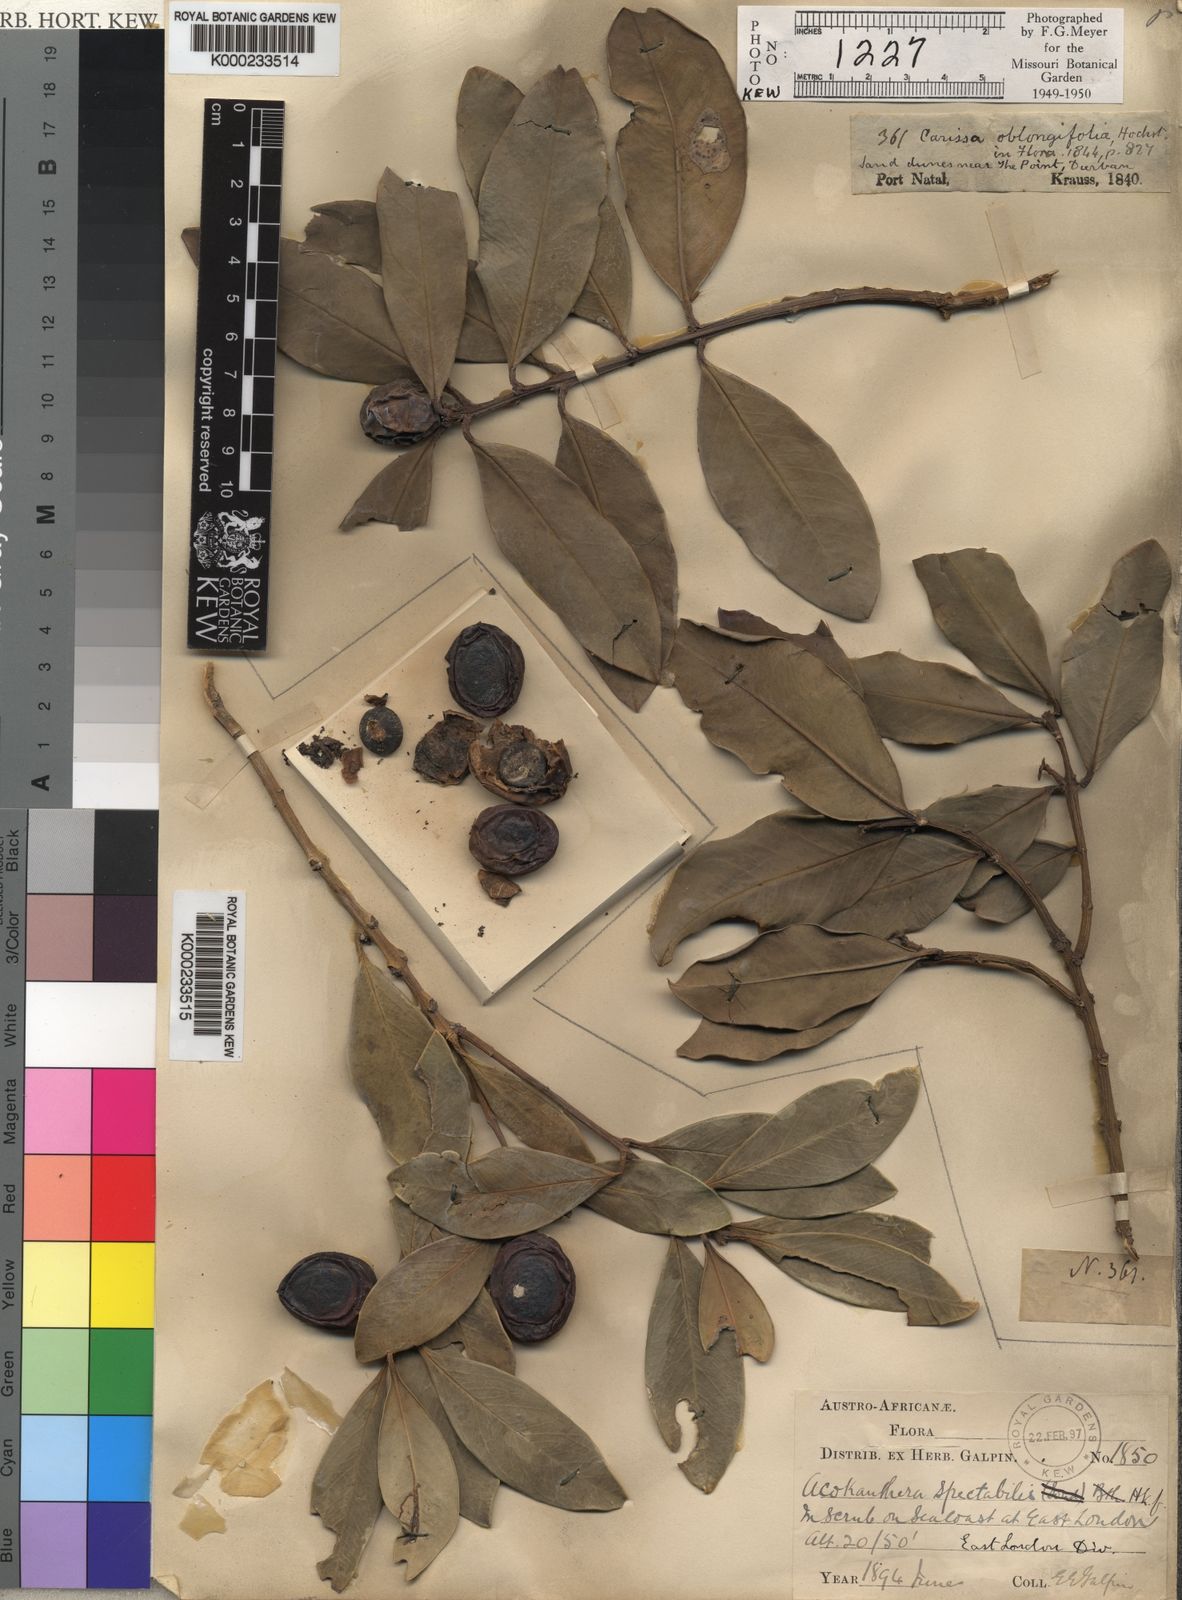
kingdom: Plantae
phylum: Tracheophyta
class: Magnoliopsida
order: Gentianales
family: Apocynaceae
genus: Acokanthera
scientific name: Acokanthera
